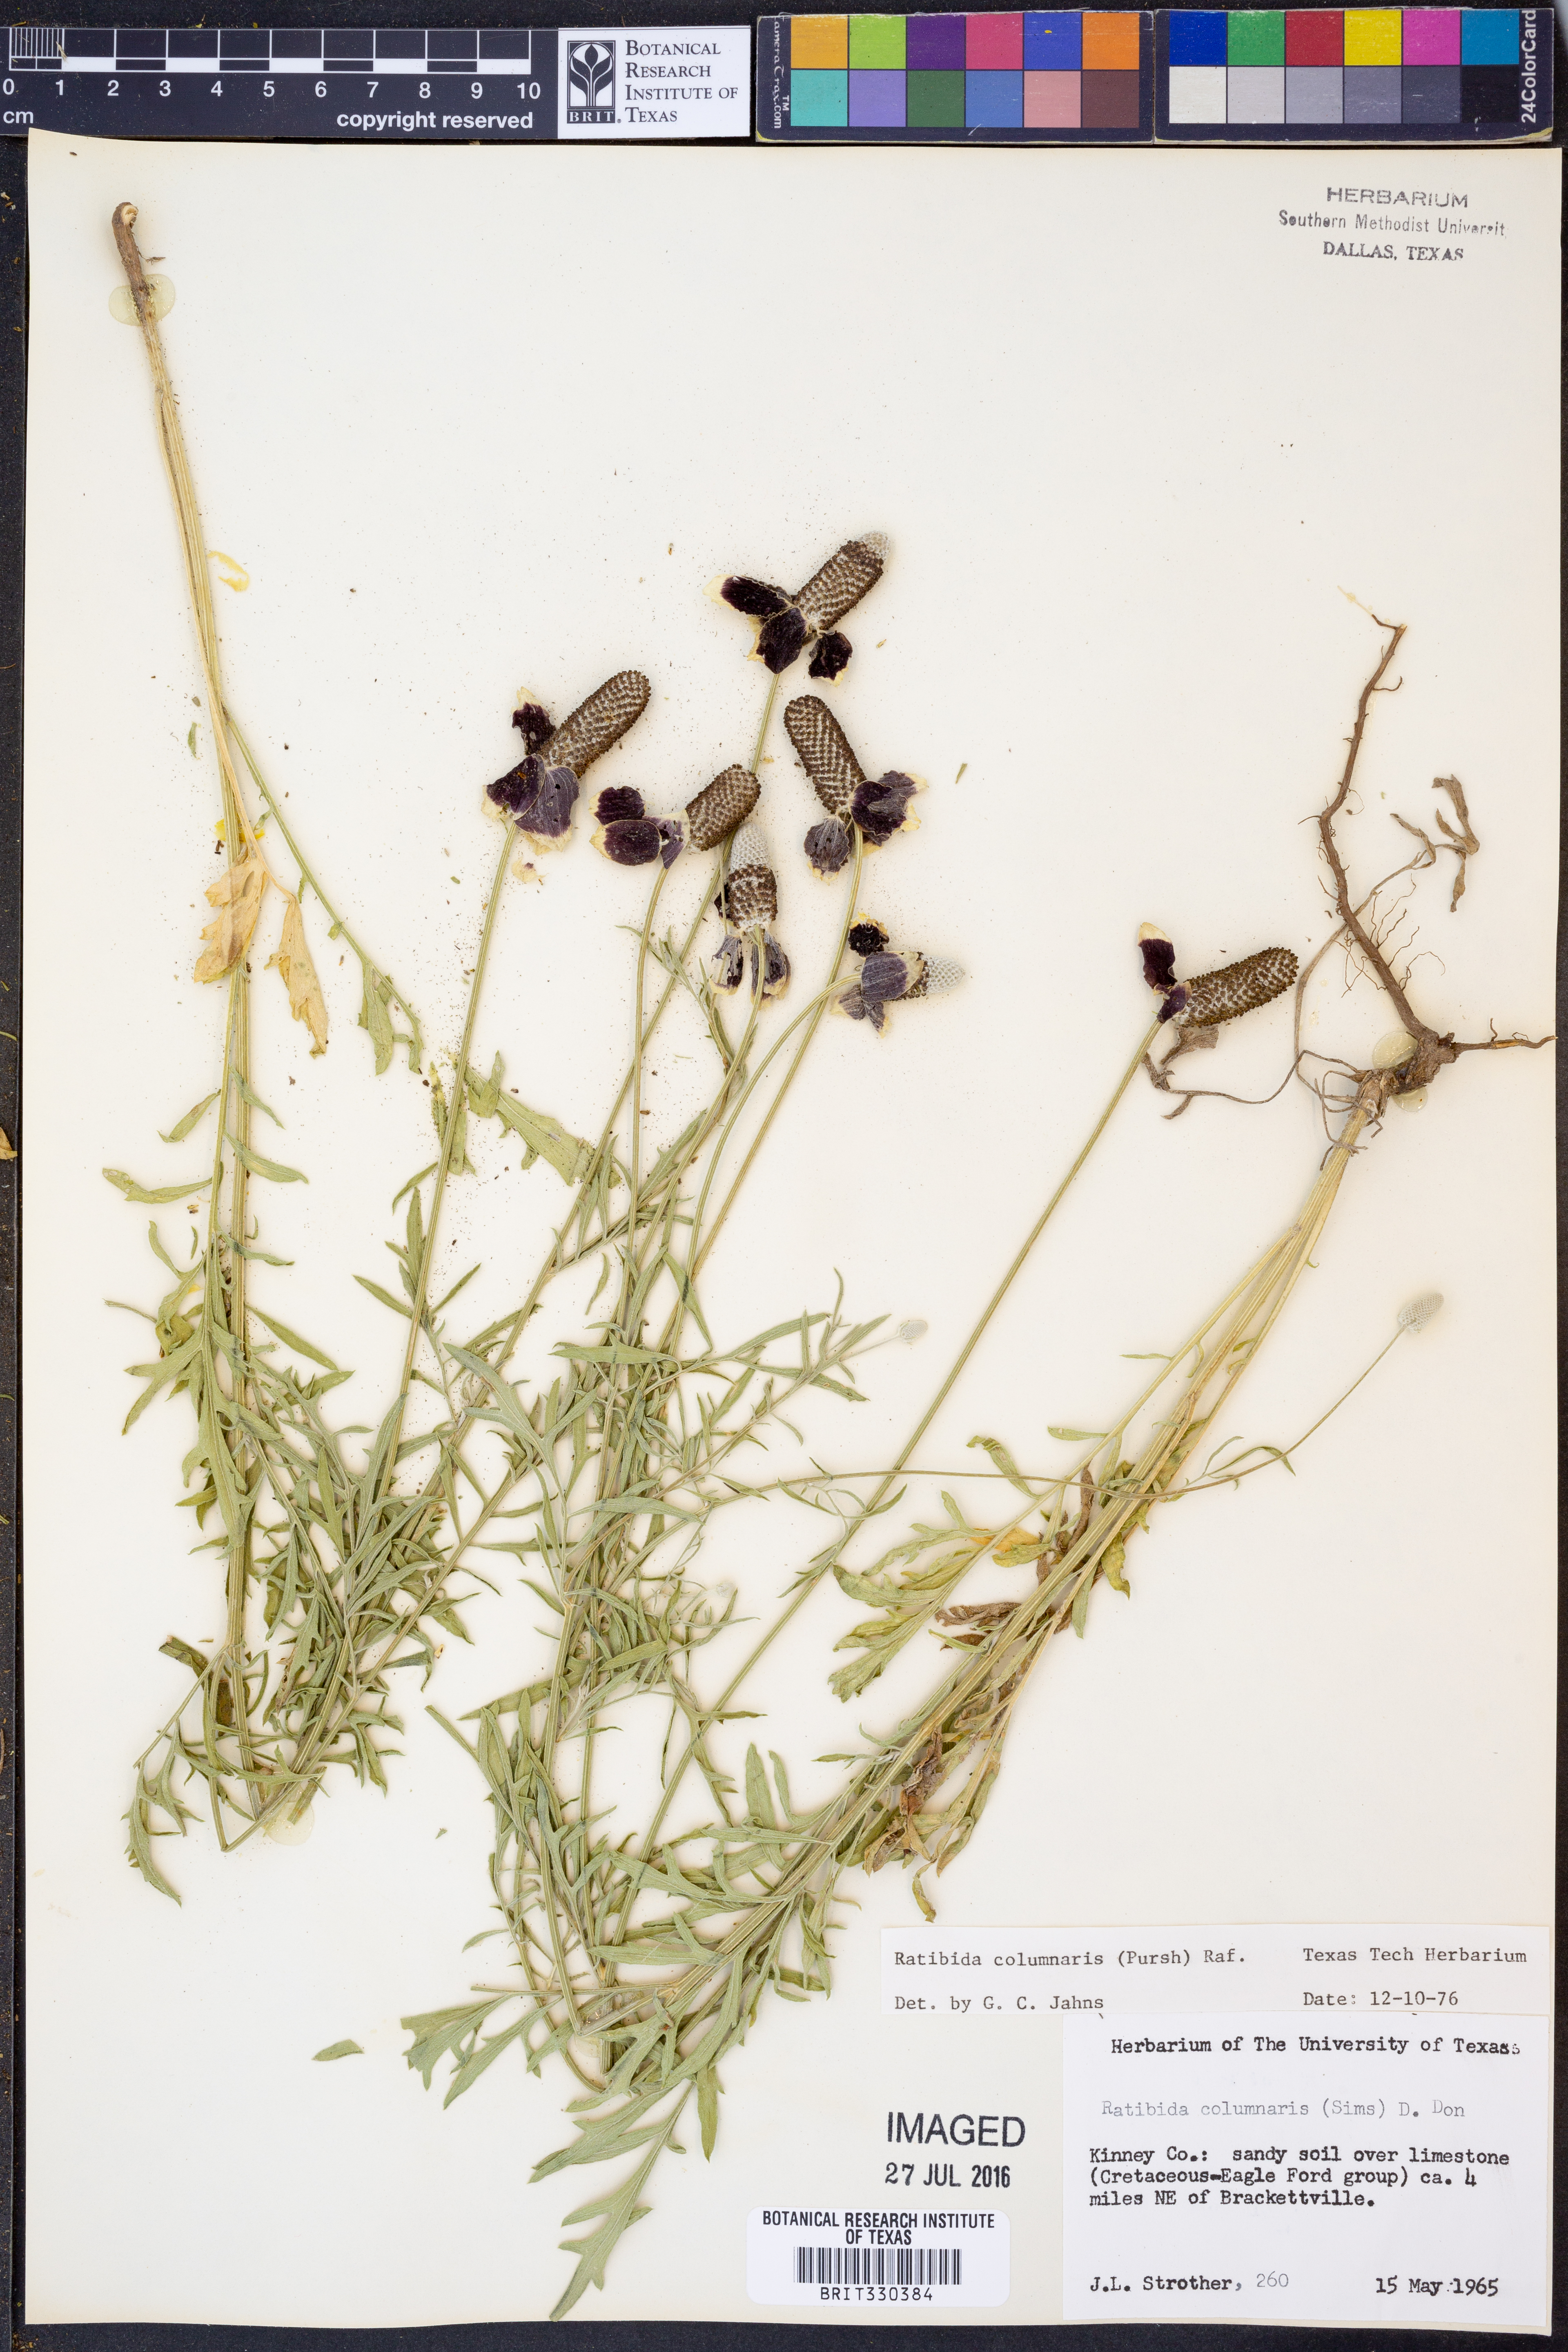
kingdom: Plantae
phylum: Tracheophyta
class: Magnoliopsida
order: Asterales
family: Asteraceae
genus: Ratibida
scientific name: Ratibida columnifera
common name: Prairie coneflower
